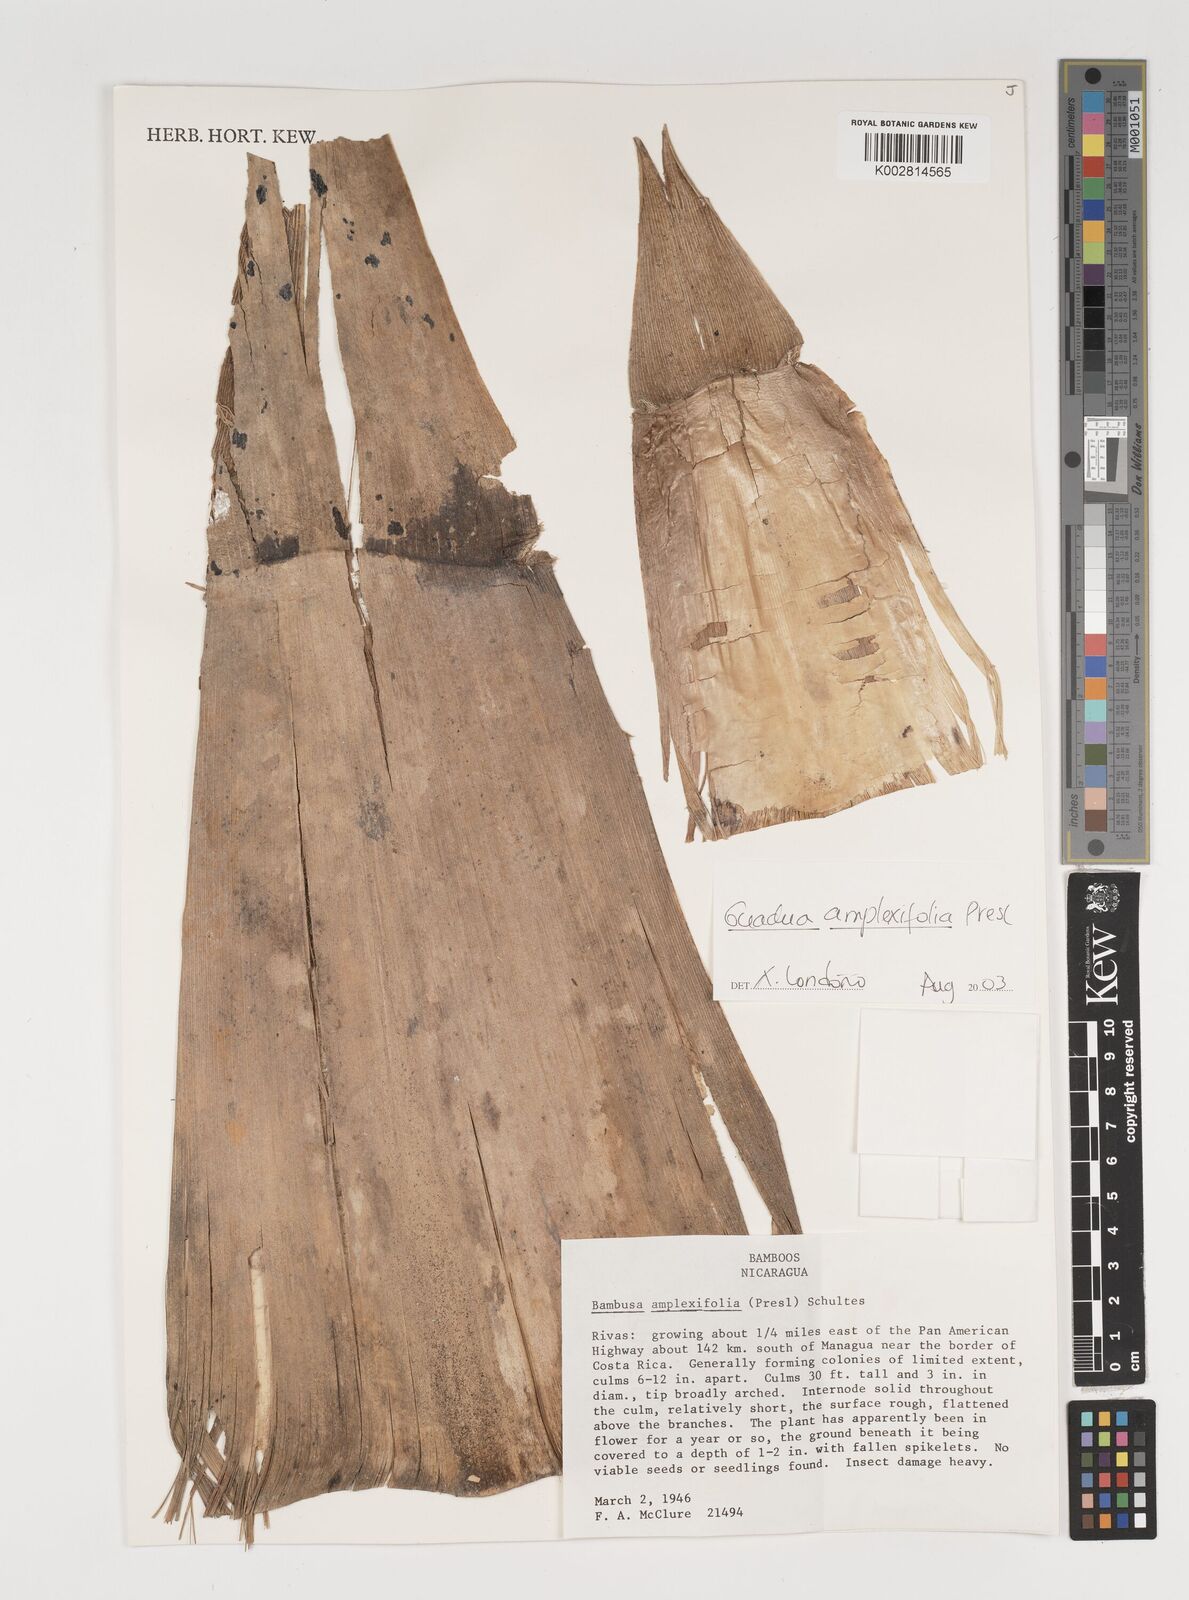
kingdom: Plantae
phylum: Tracheophyta
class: Liliopsida
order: Poales
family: Poaceae
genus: Guadua
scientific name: Guadua amplexifolia
